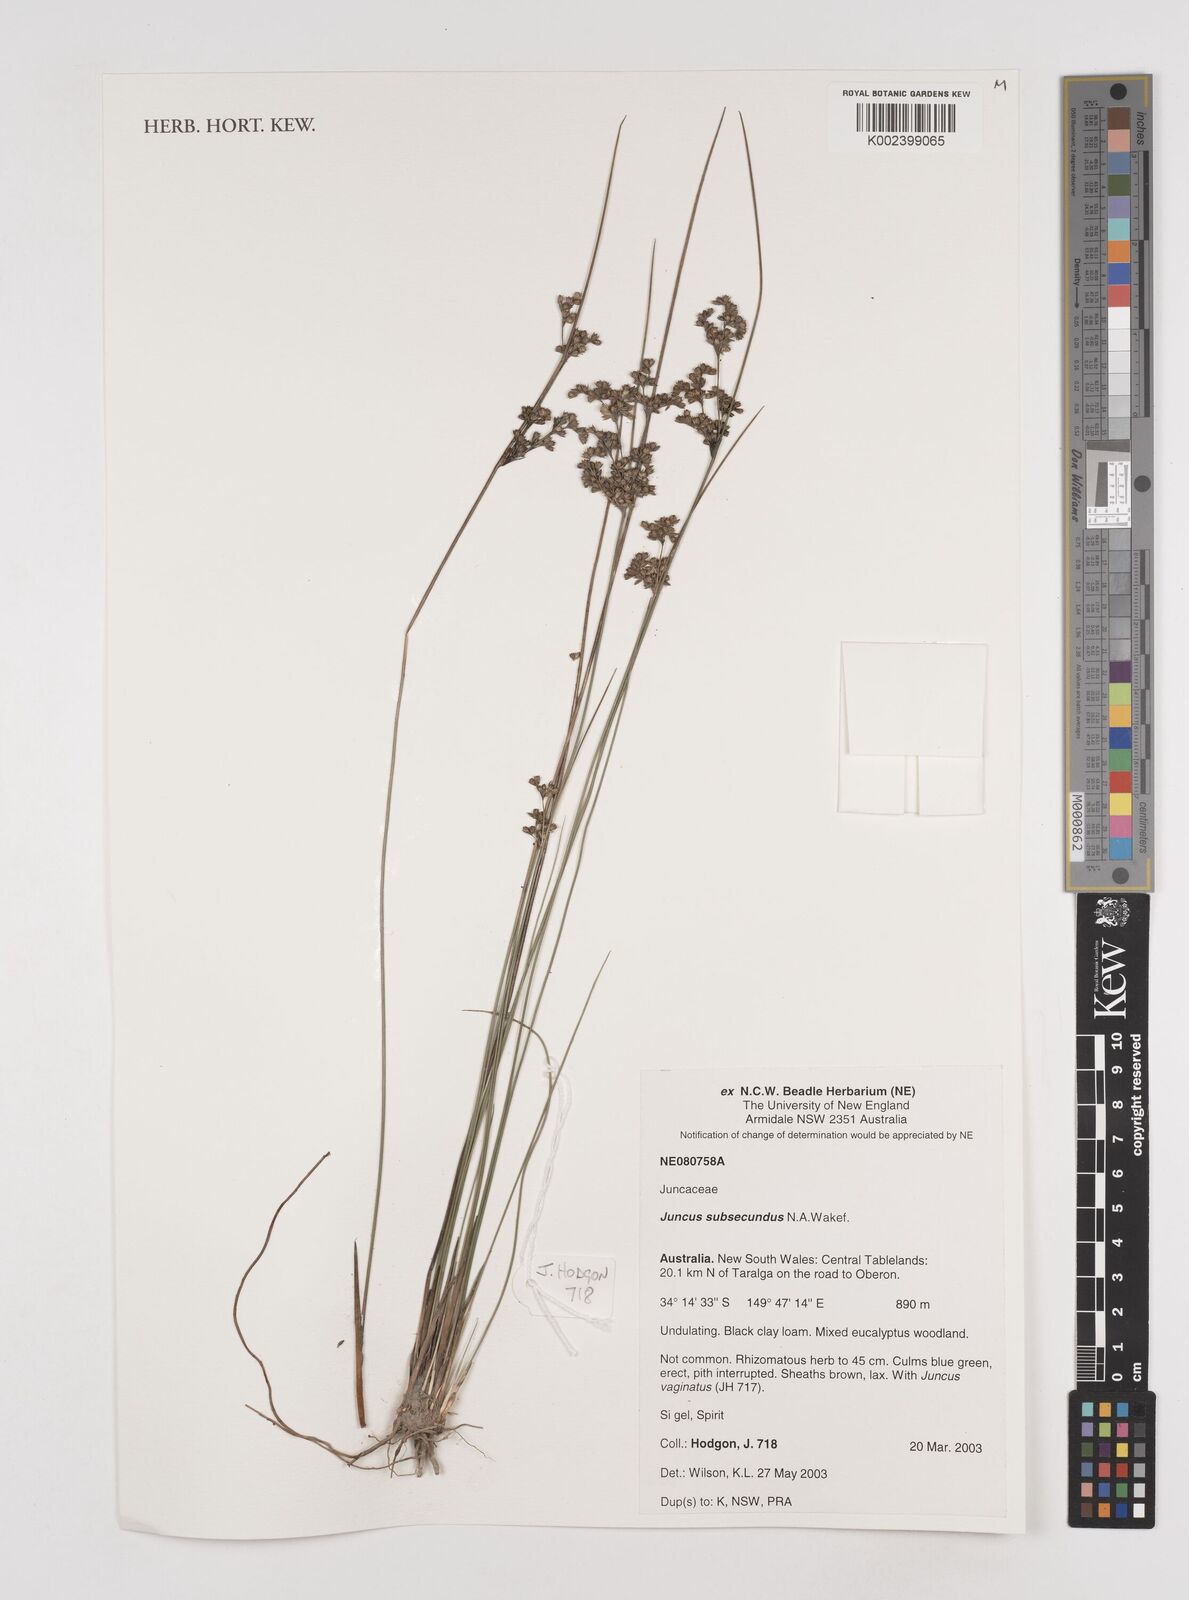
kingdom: Plantae
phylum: Tracheophyta
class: Liliopsida
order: Poales
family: Juncaceae
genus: Juncus
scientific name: Juncus subsecundus
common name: Fingered rush
